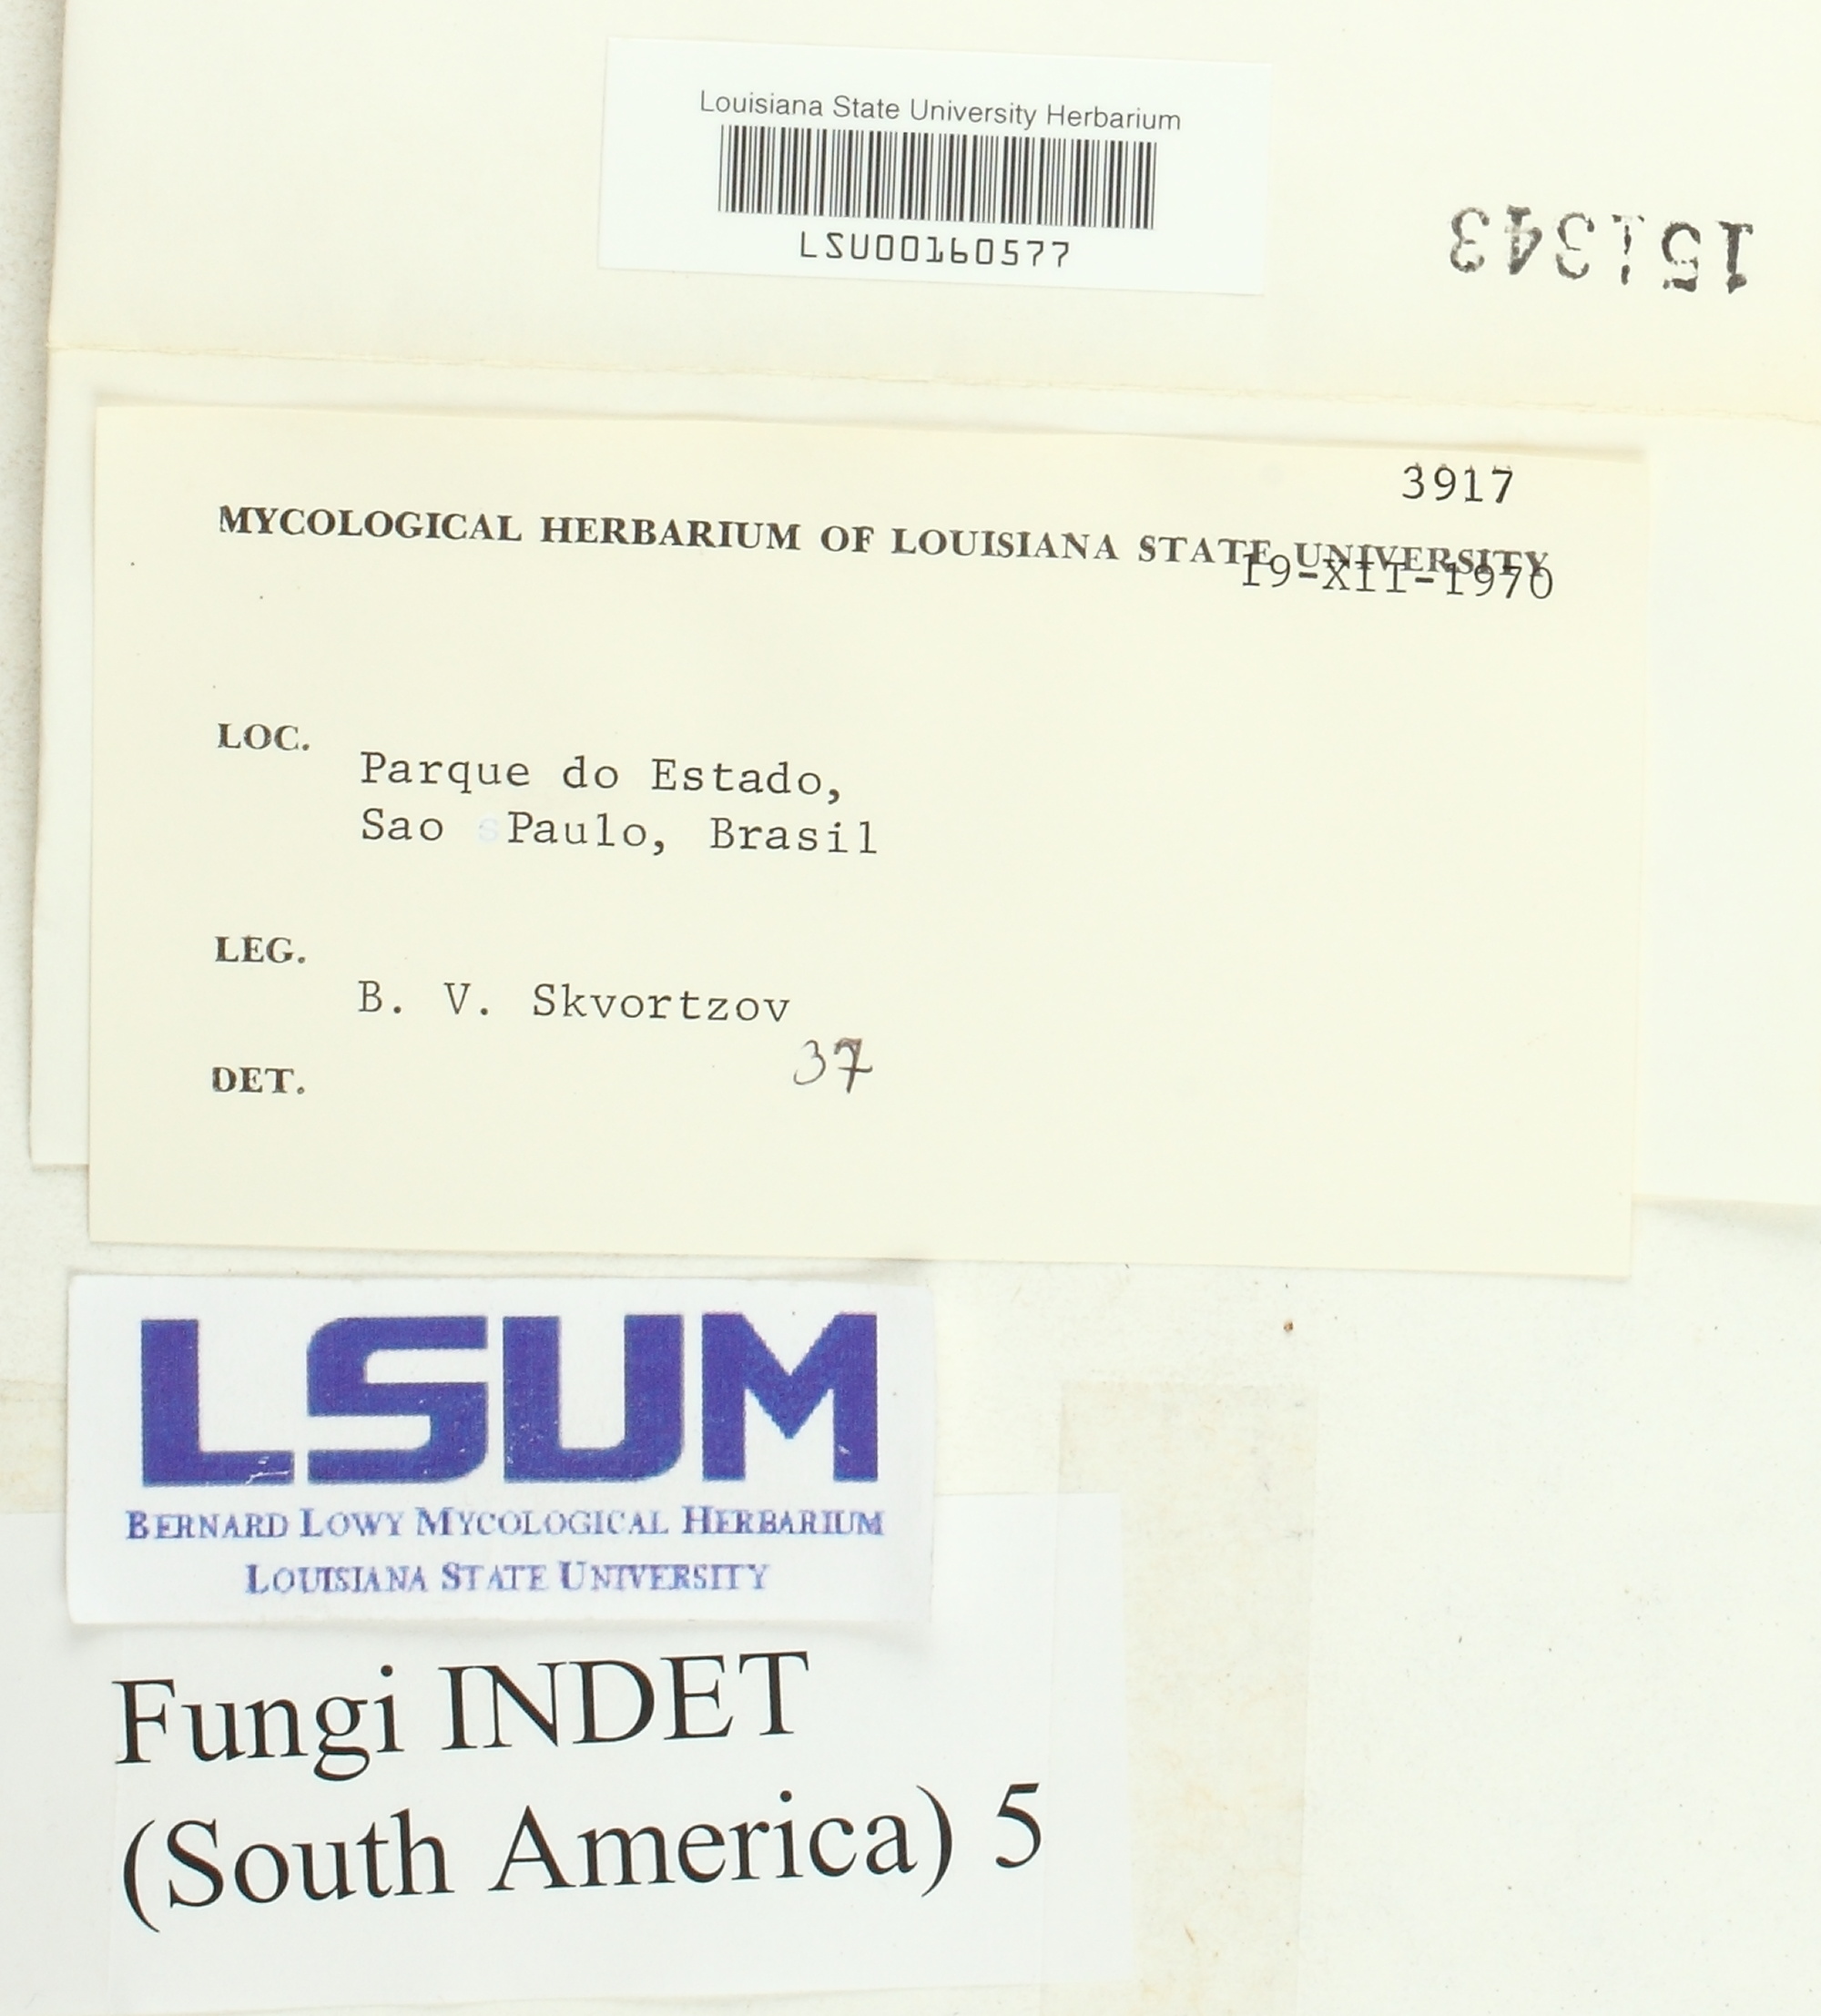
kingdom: Fungi
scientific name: Fungi
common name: Fungi
